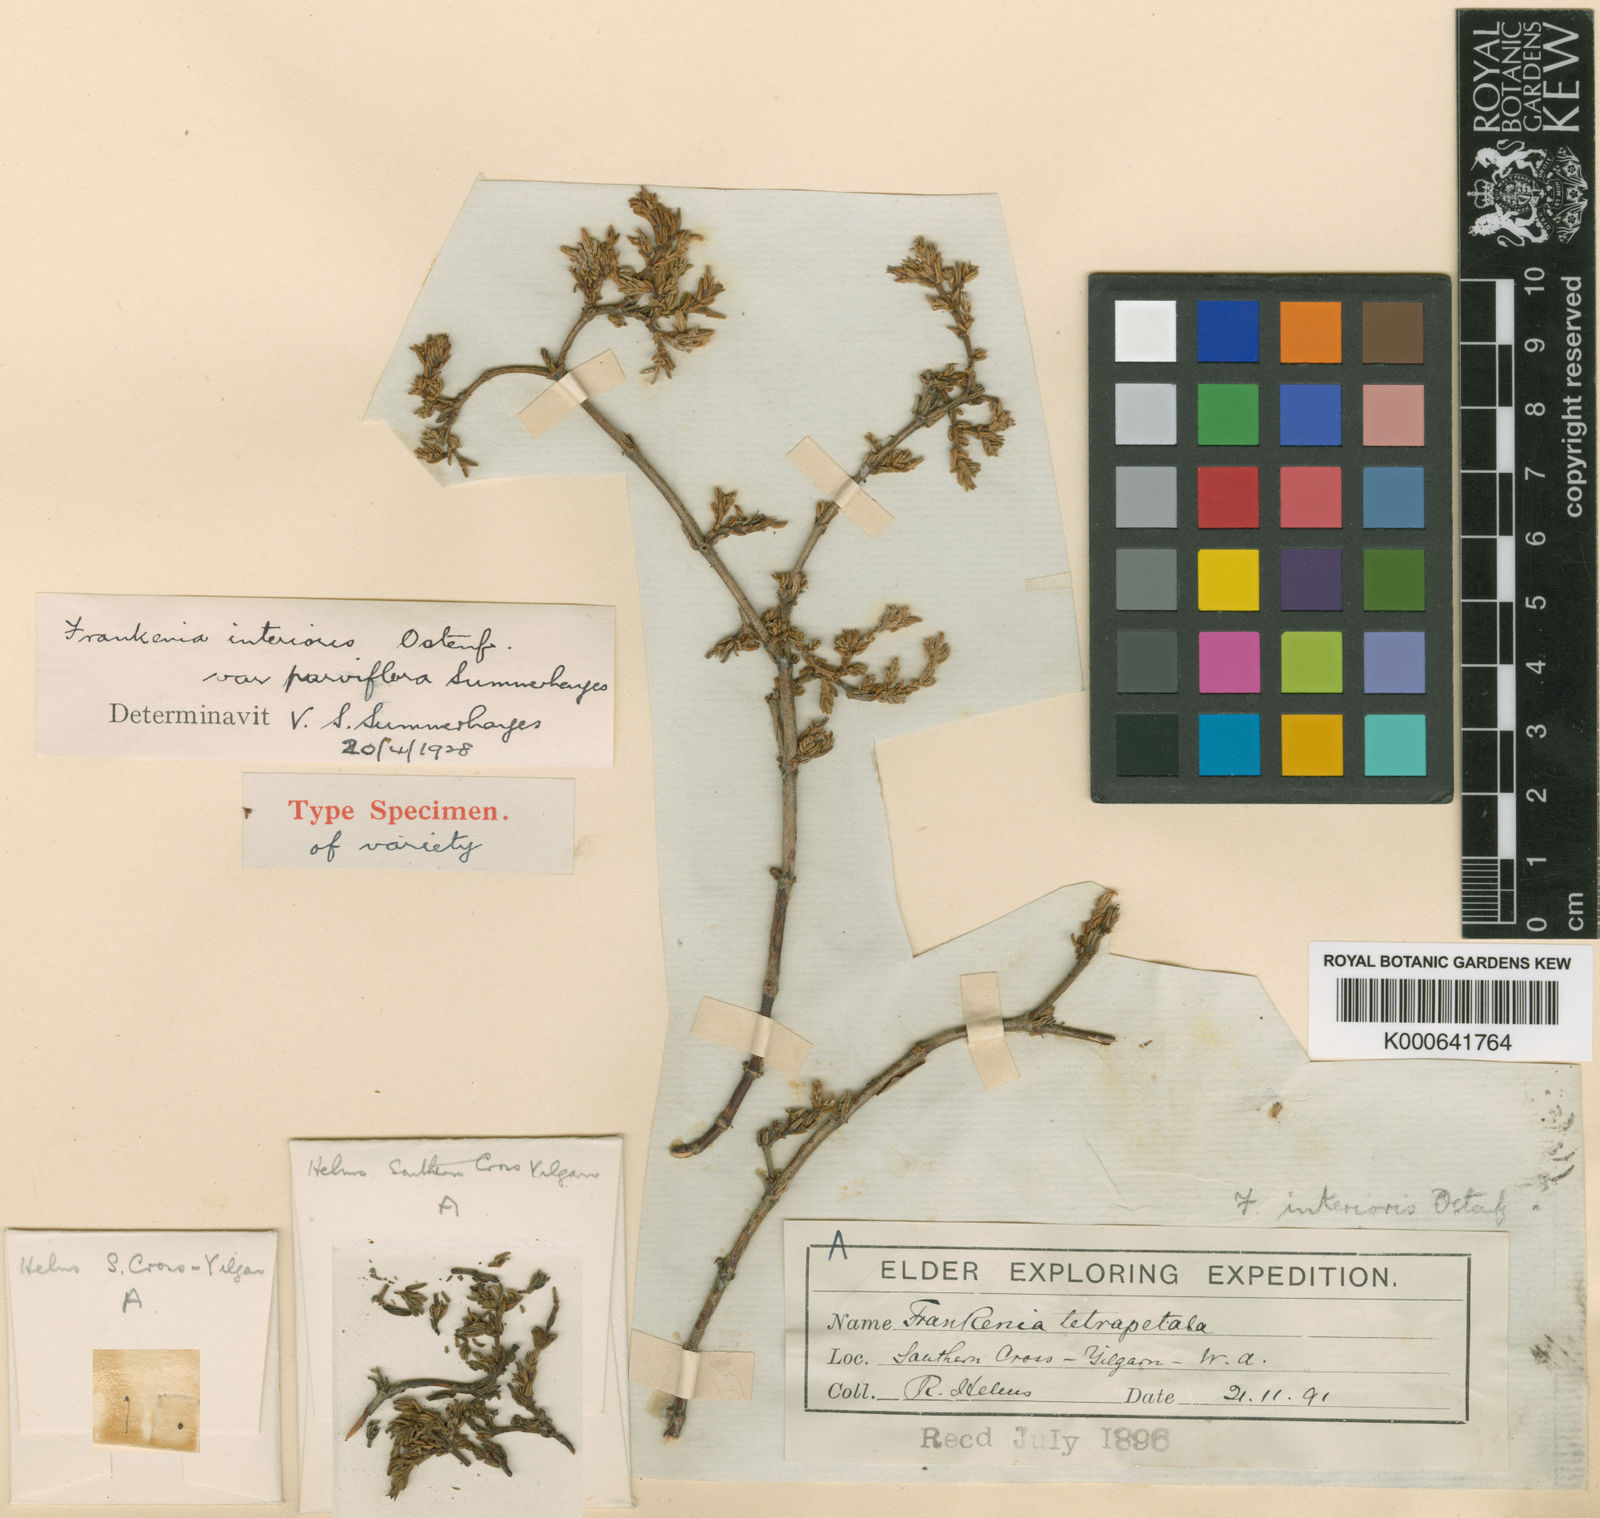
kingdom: Plantae
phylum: Tracheophyta
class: Magnoliopsida
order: Caryophyllales
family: Frankeniaceae
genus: Frankenia
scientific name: Frankenia interioris
